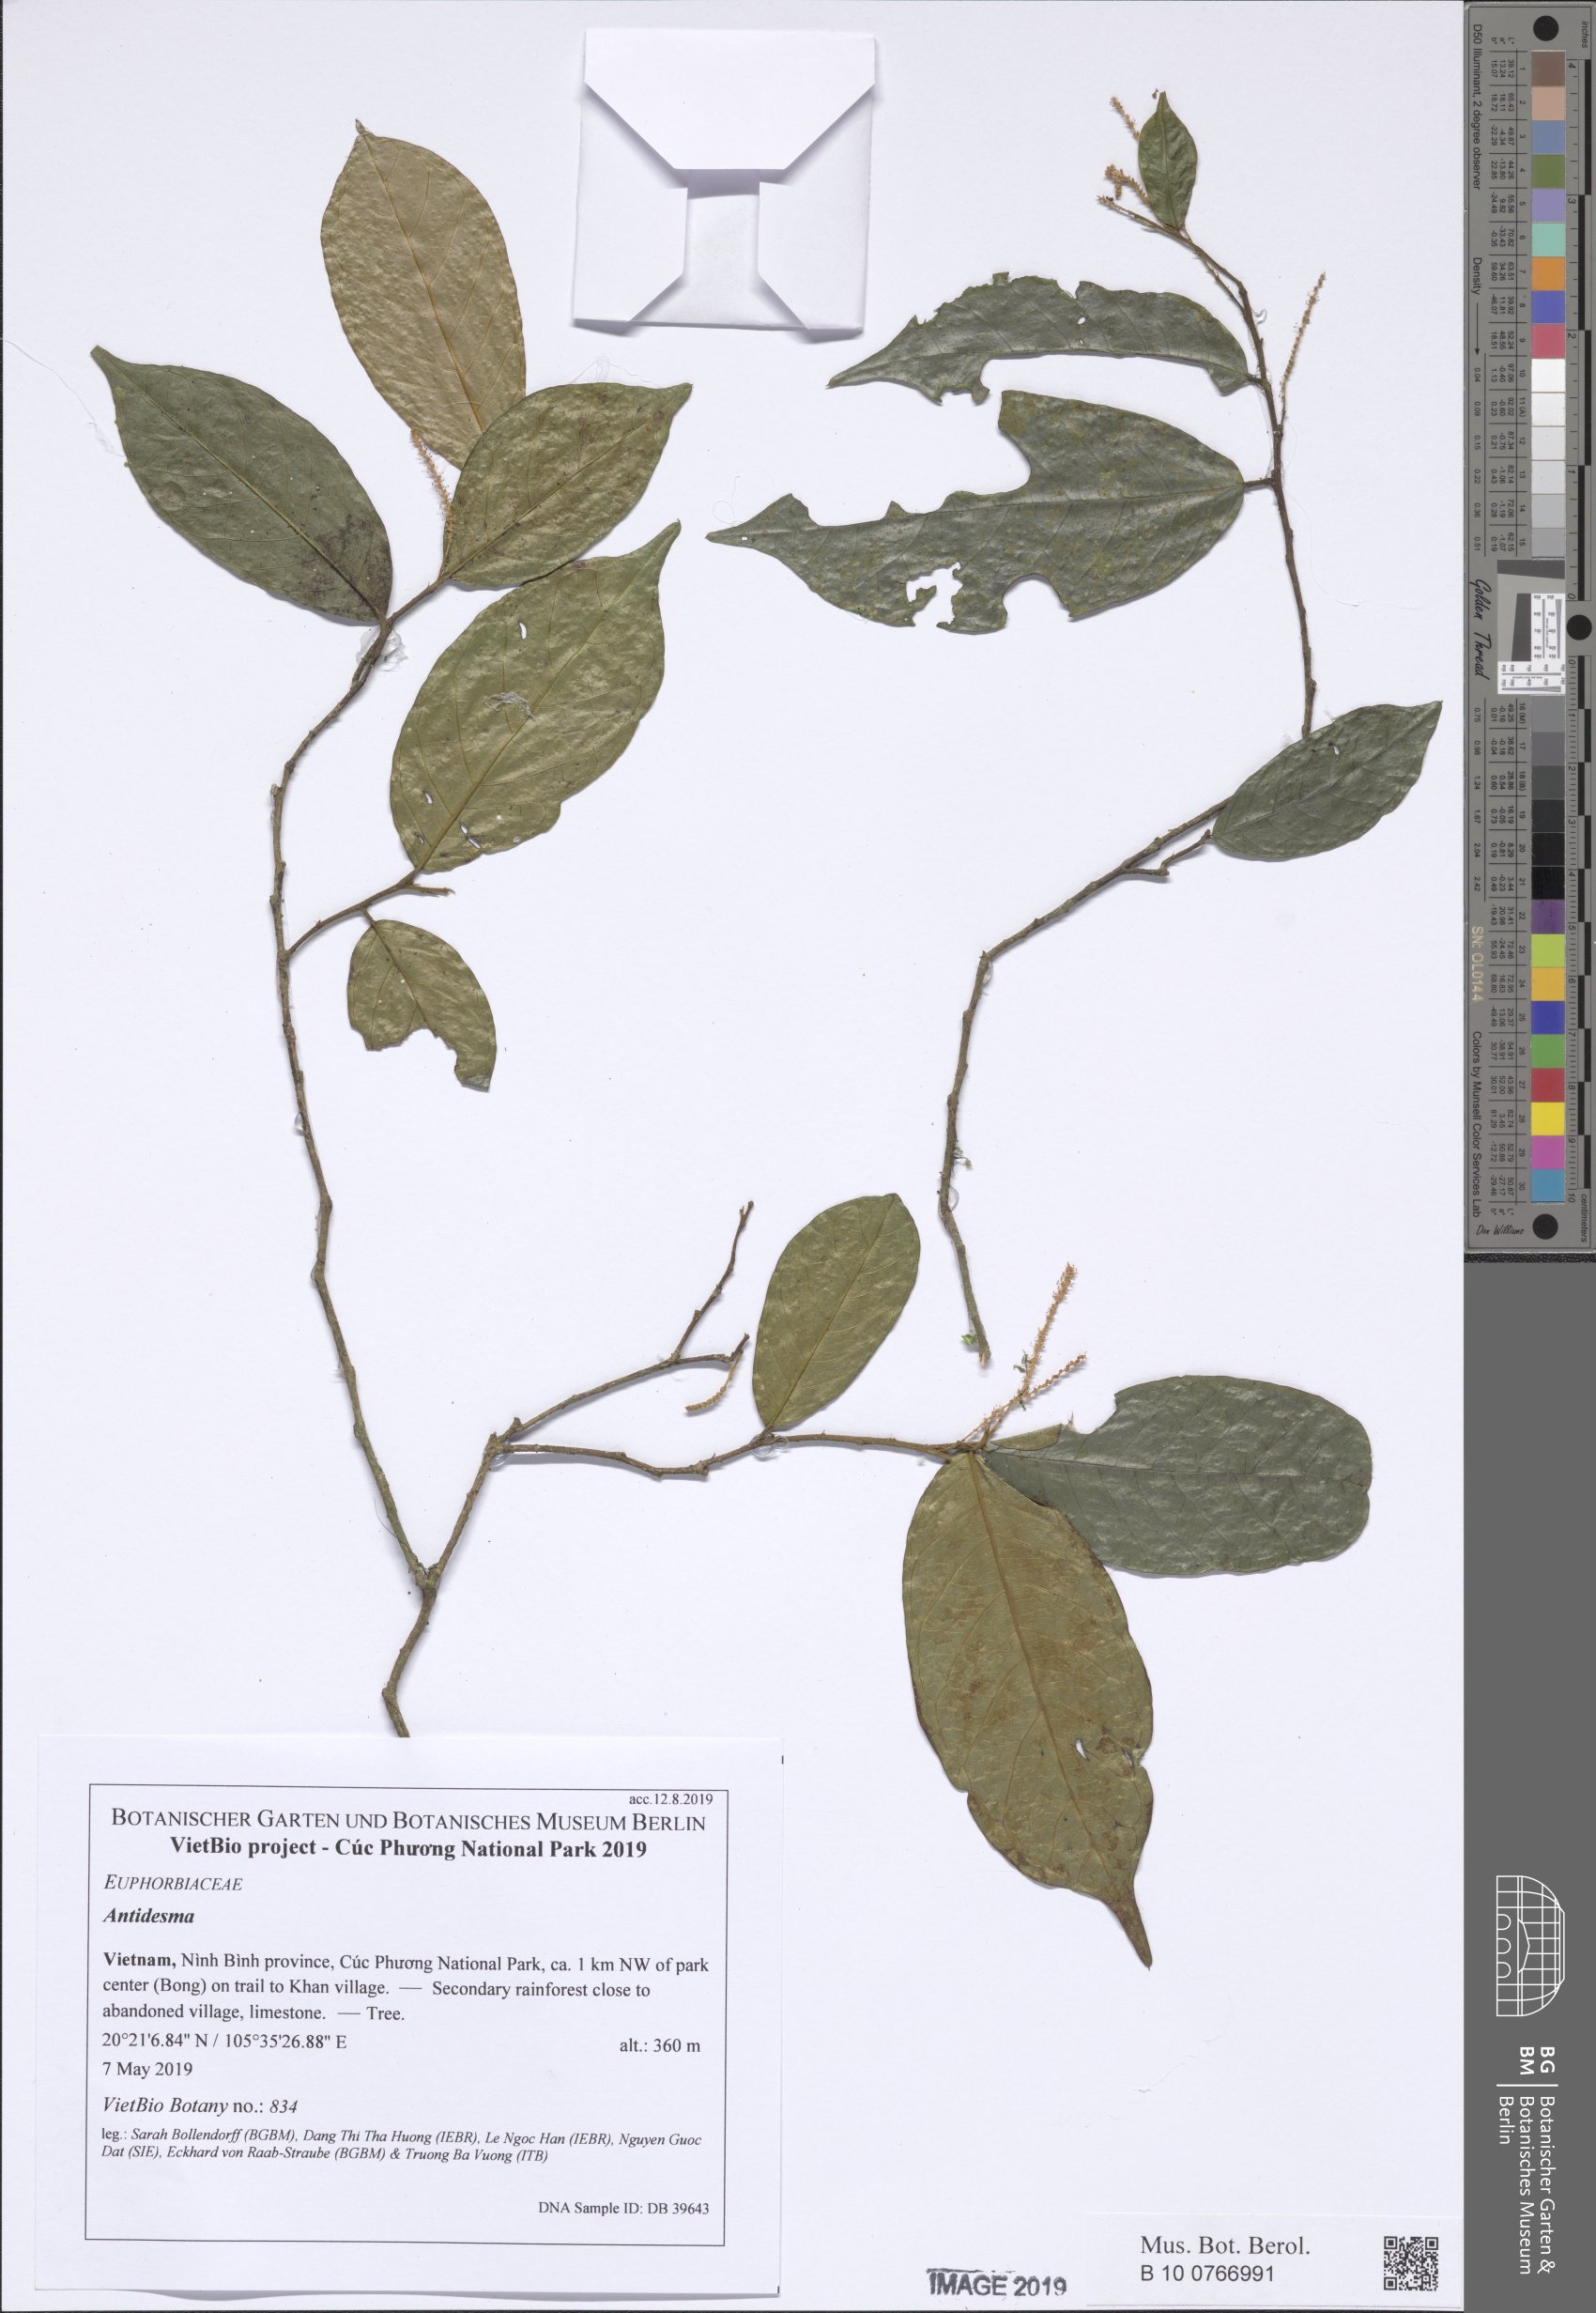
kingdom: Plantae
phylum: Tracheophyta
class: Magnoliopsida
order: Malpighiales
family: Phyllanthaceae
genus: Antidesma
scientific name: Antidesma ambiguum
